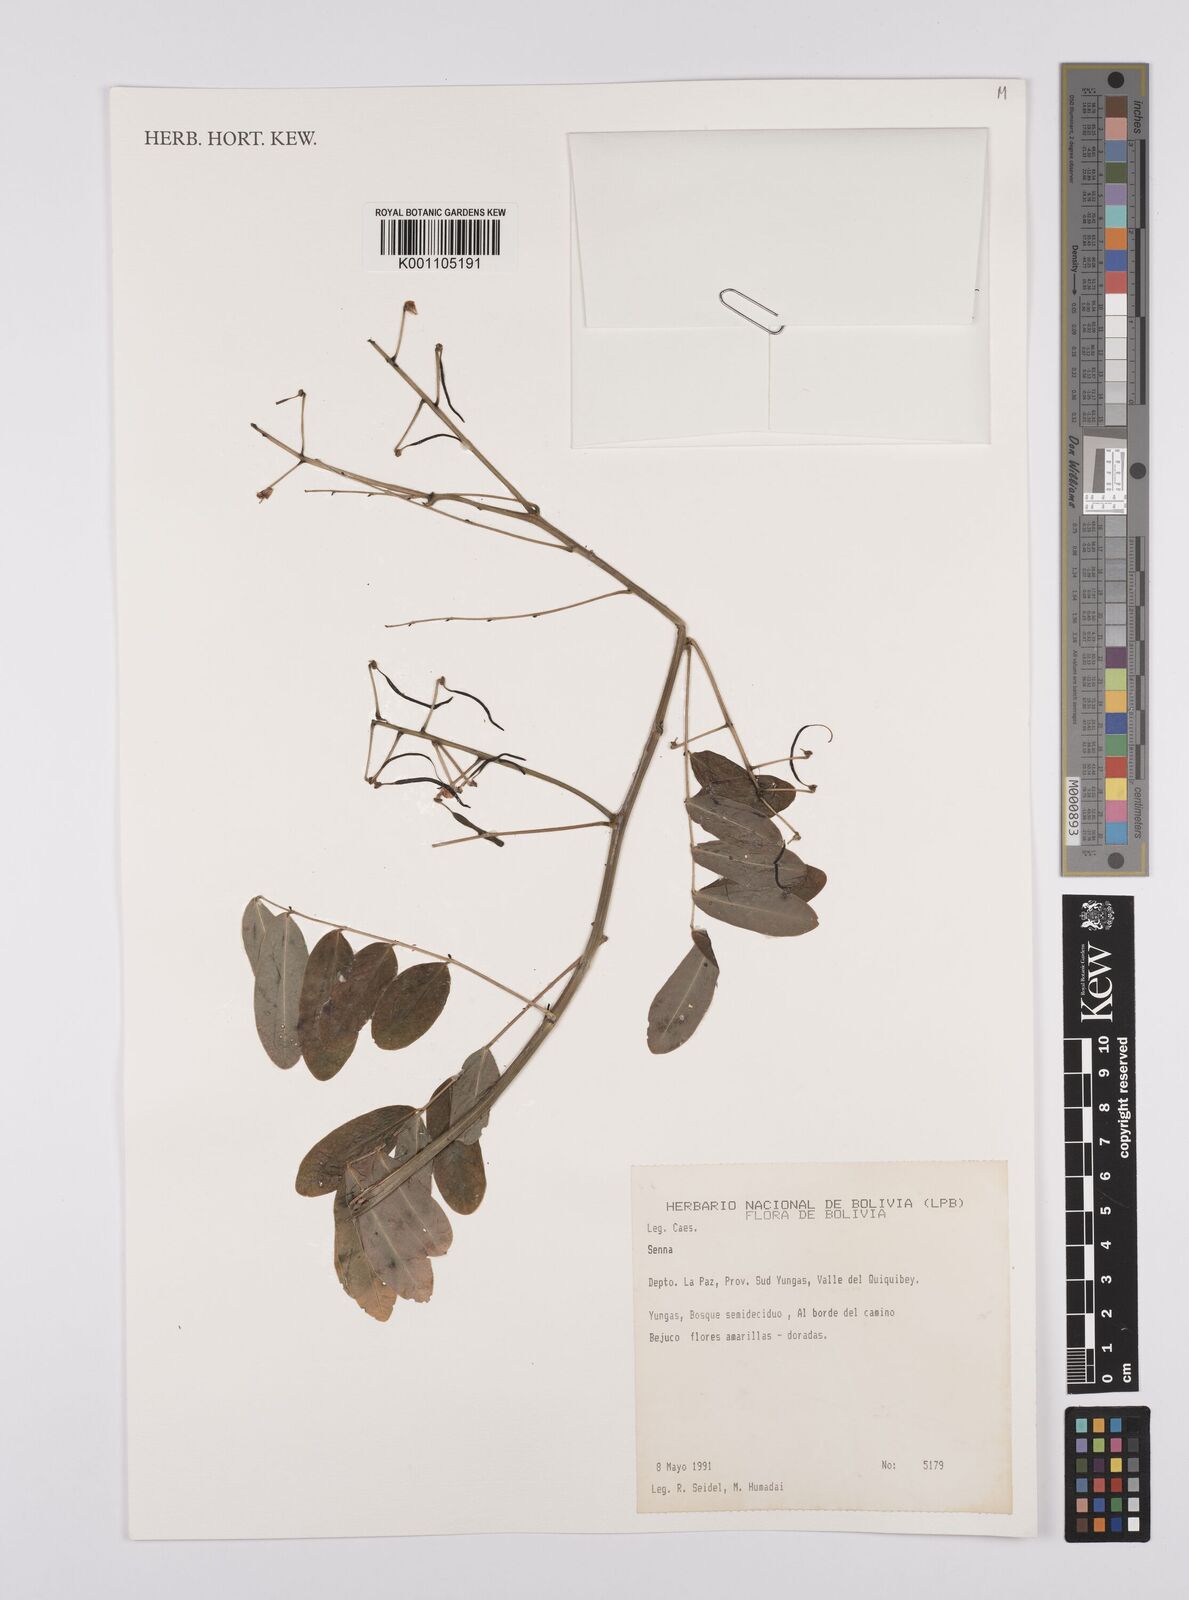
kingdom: Plantae
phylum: Tracheophyta
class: Magnoliopsida
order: Fabales
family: Fabaceae
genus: Senna
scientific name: Senna
